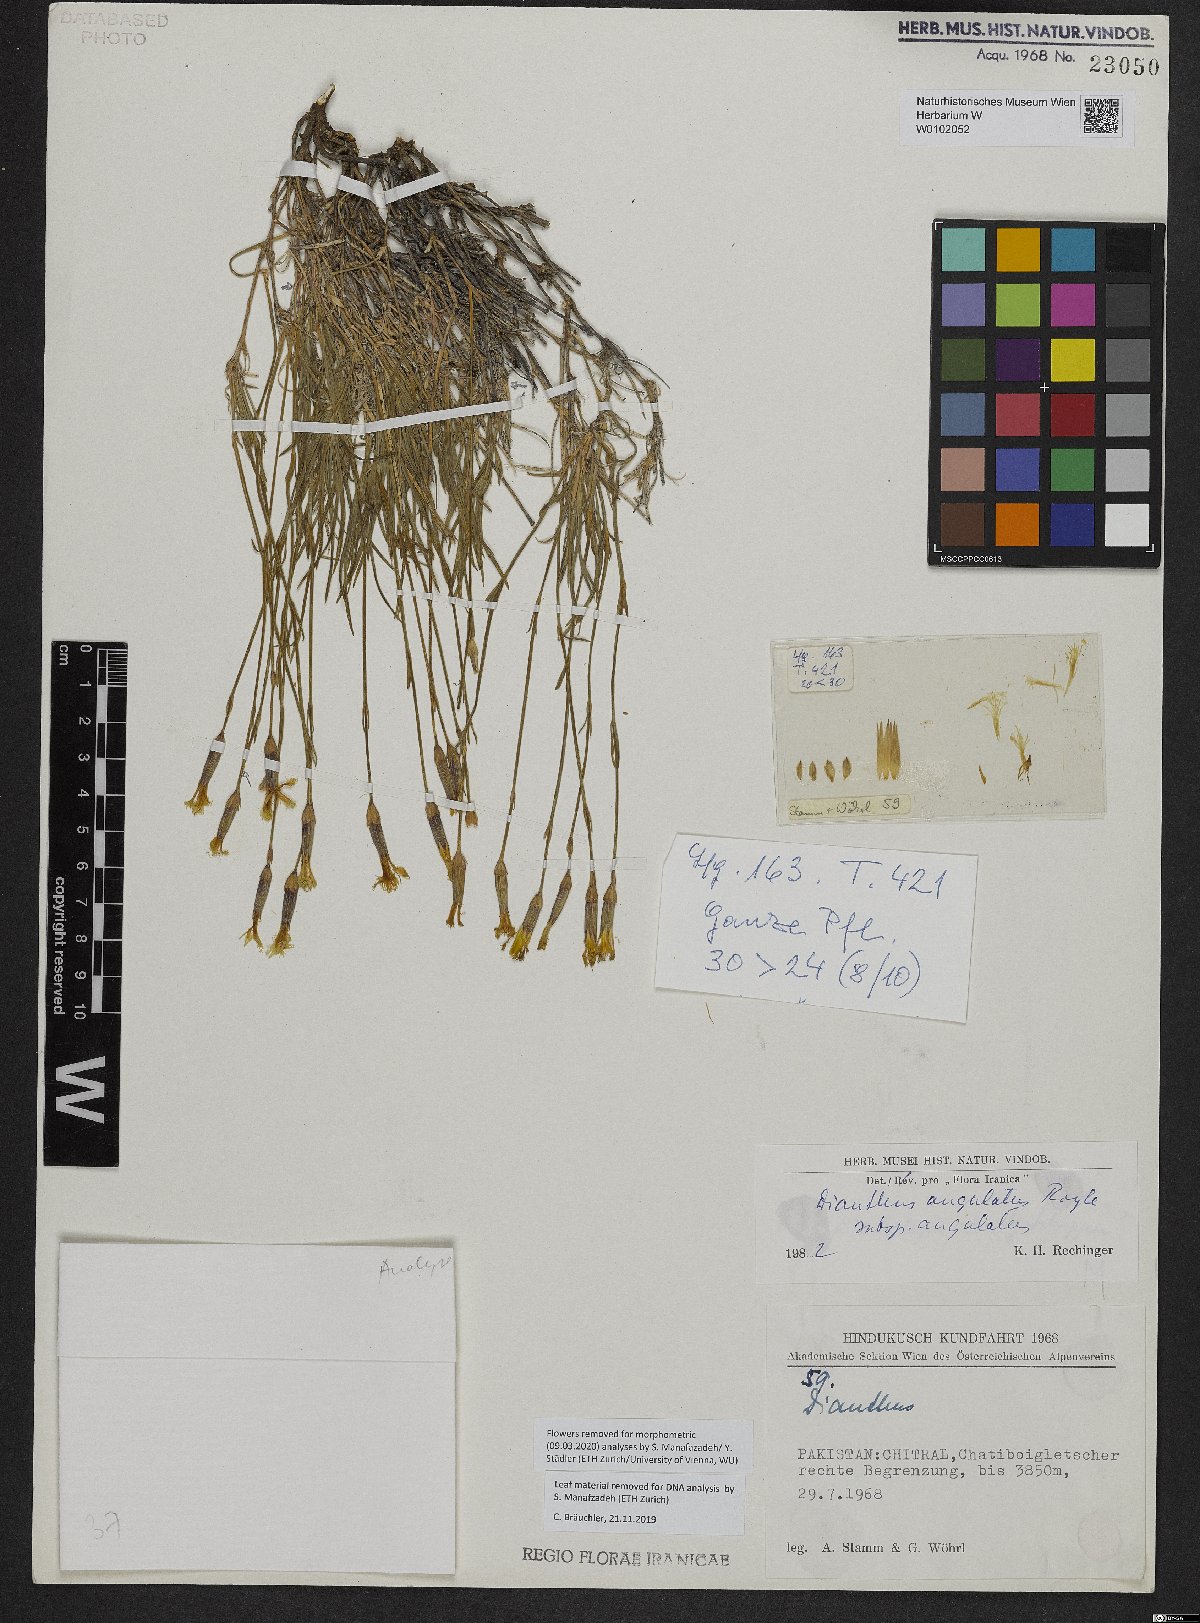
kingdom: Plantae
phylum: Tracheophyta
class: Magnoliopsida
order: Caryophyllales
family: Caryophyllaceae
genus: Dianthus
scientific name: Dianthus angulatus
